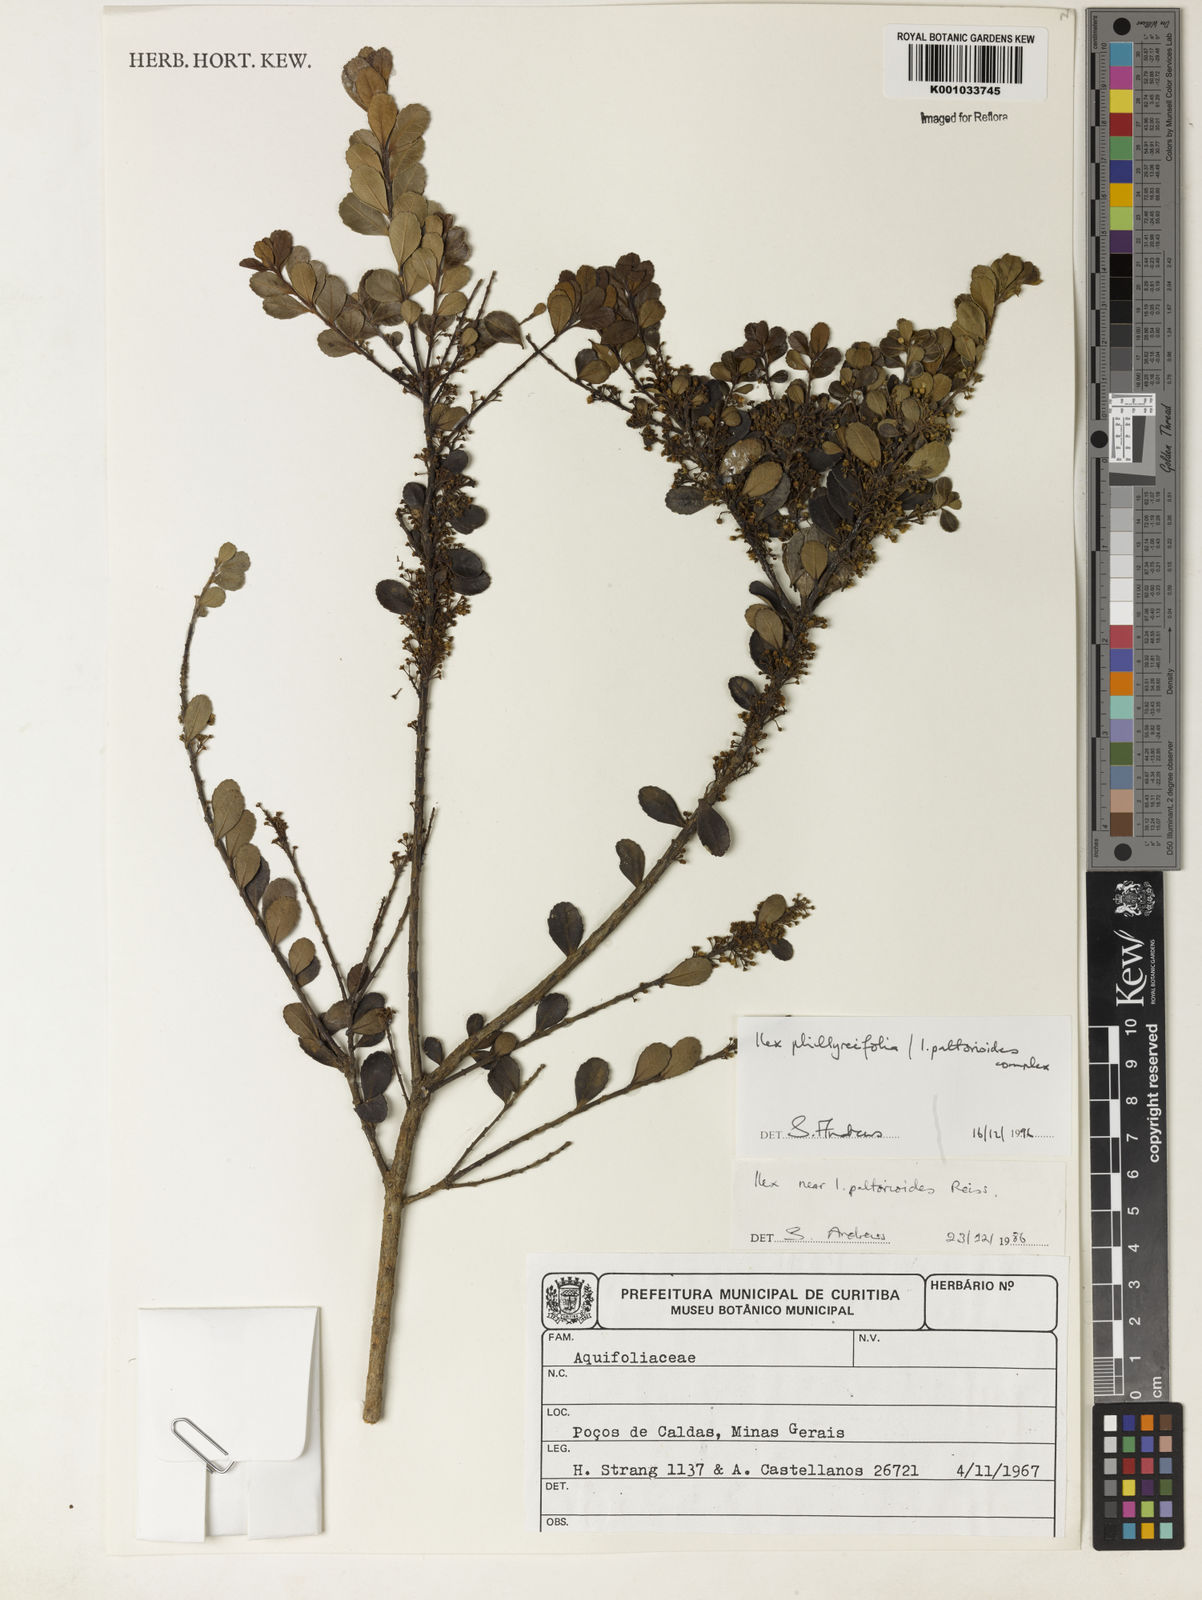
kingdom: Plantae
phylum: Tracheophyta
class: Magnoliopsida
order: Aquifoliales
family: Aquifoliaceae
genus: Ilex
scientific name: Ilex
